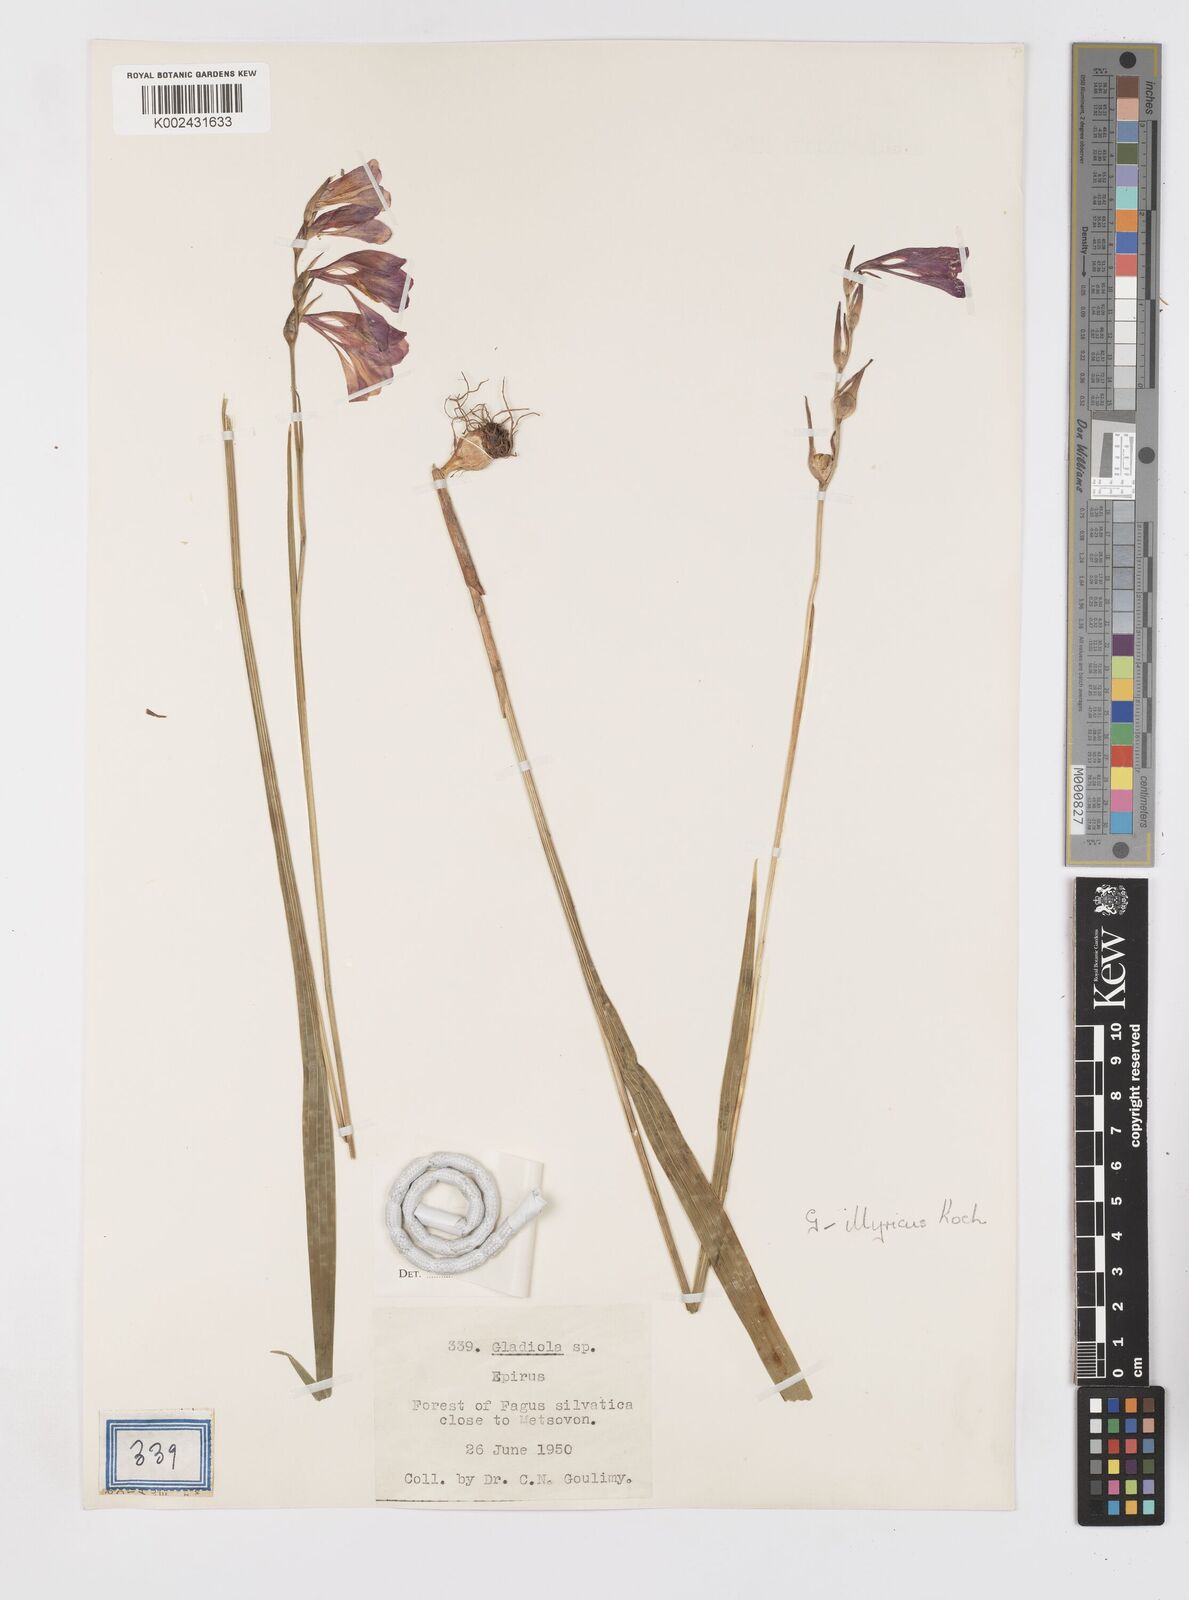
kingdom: Plantae
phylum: Tracheophyta
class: Liliopsida
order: Asparagales
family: Iridaceae
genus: Gladiolus
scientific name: Gladiolus imbricatus
